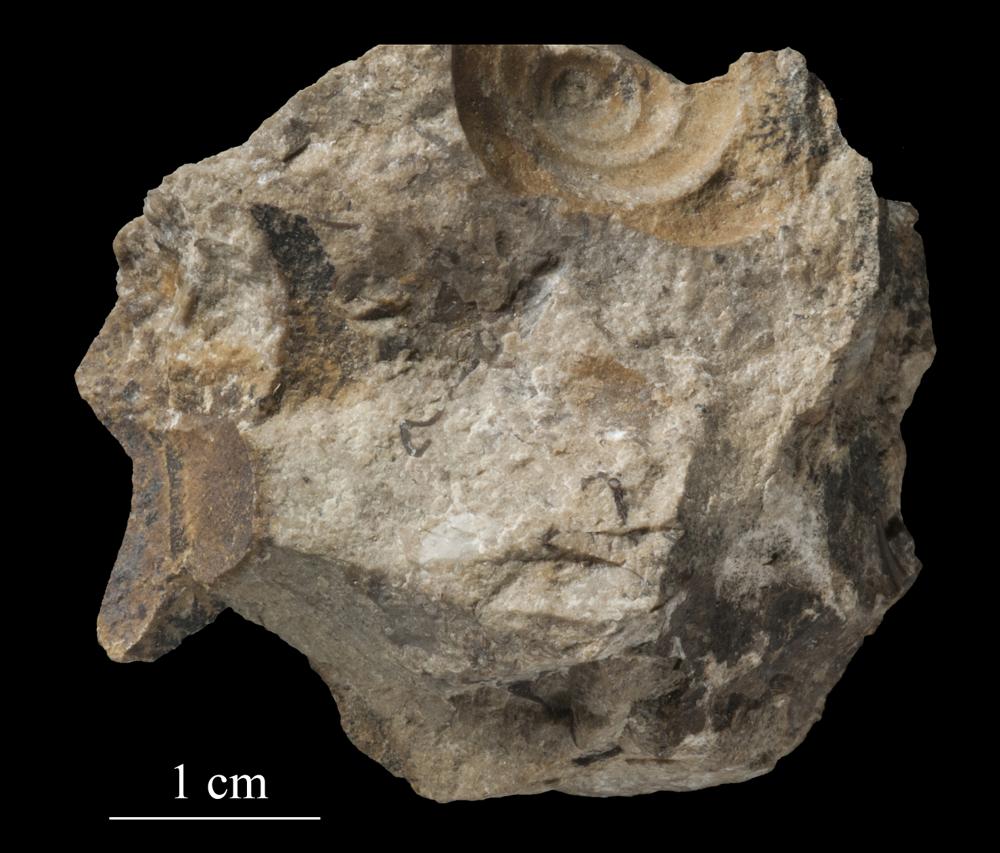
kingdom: Animalia
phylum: Mollusca
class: Gastropoda
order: Neogastropoda
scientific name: Neogastropoda
